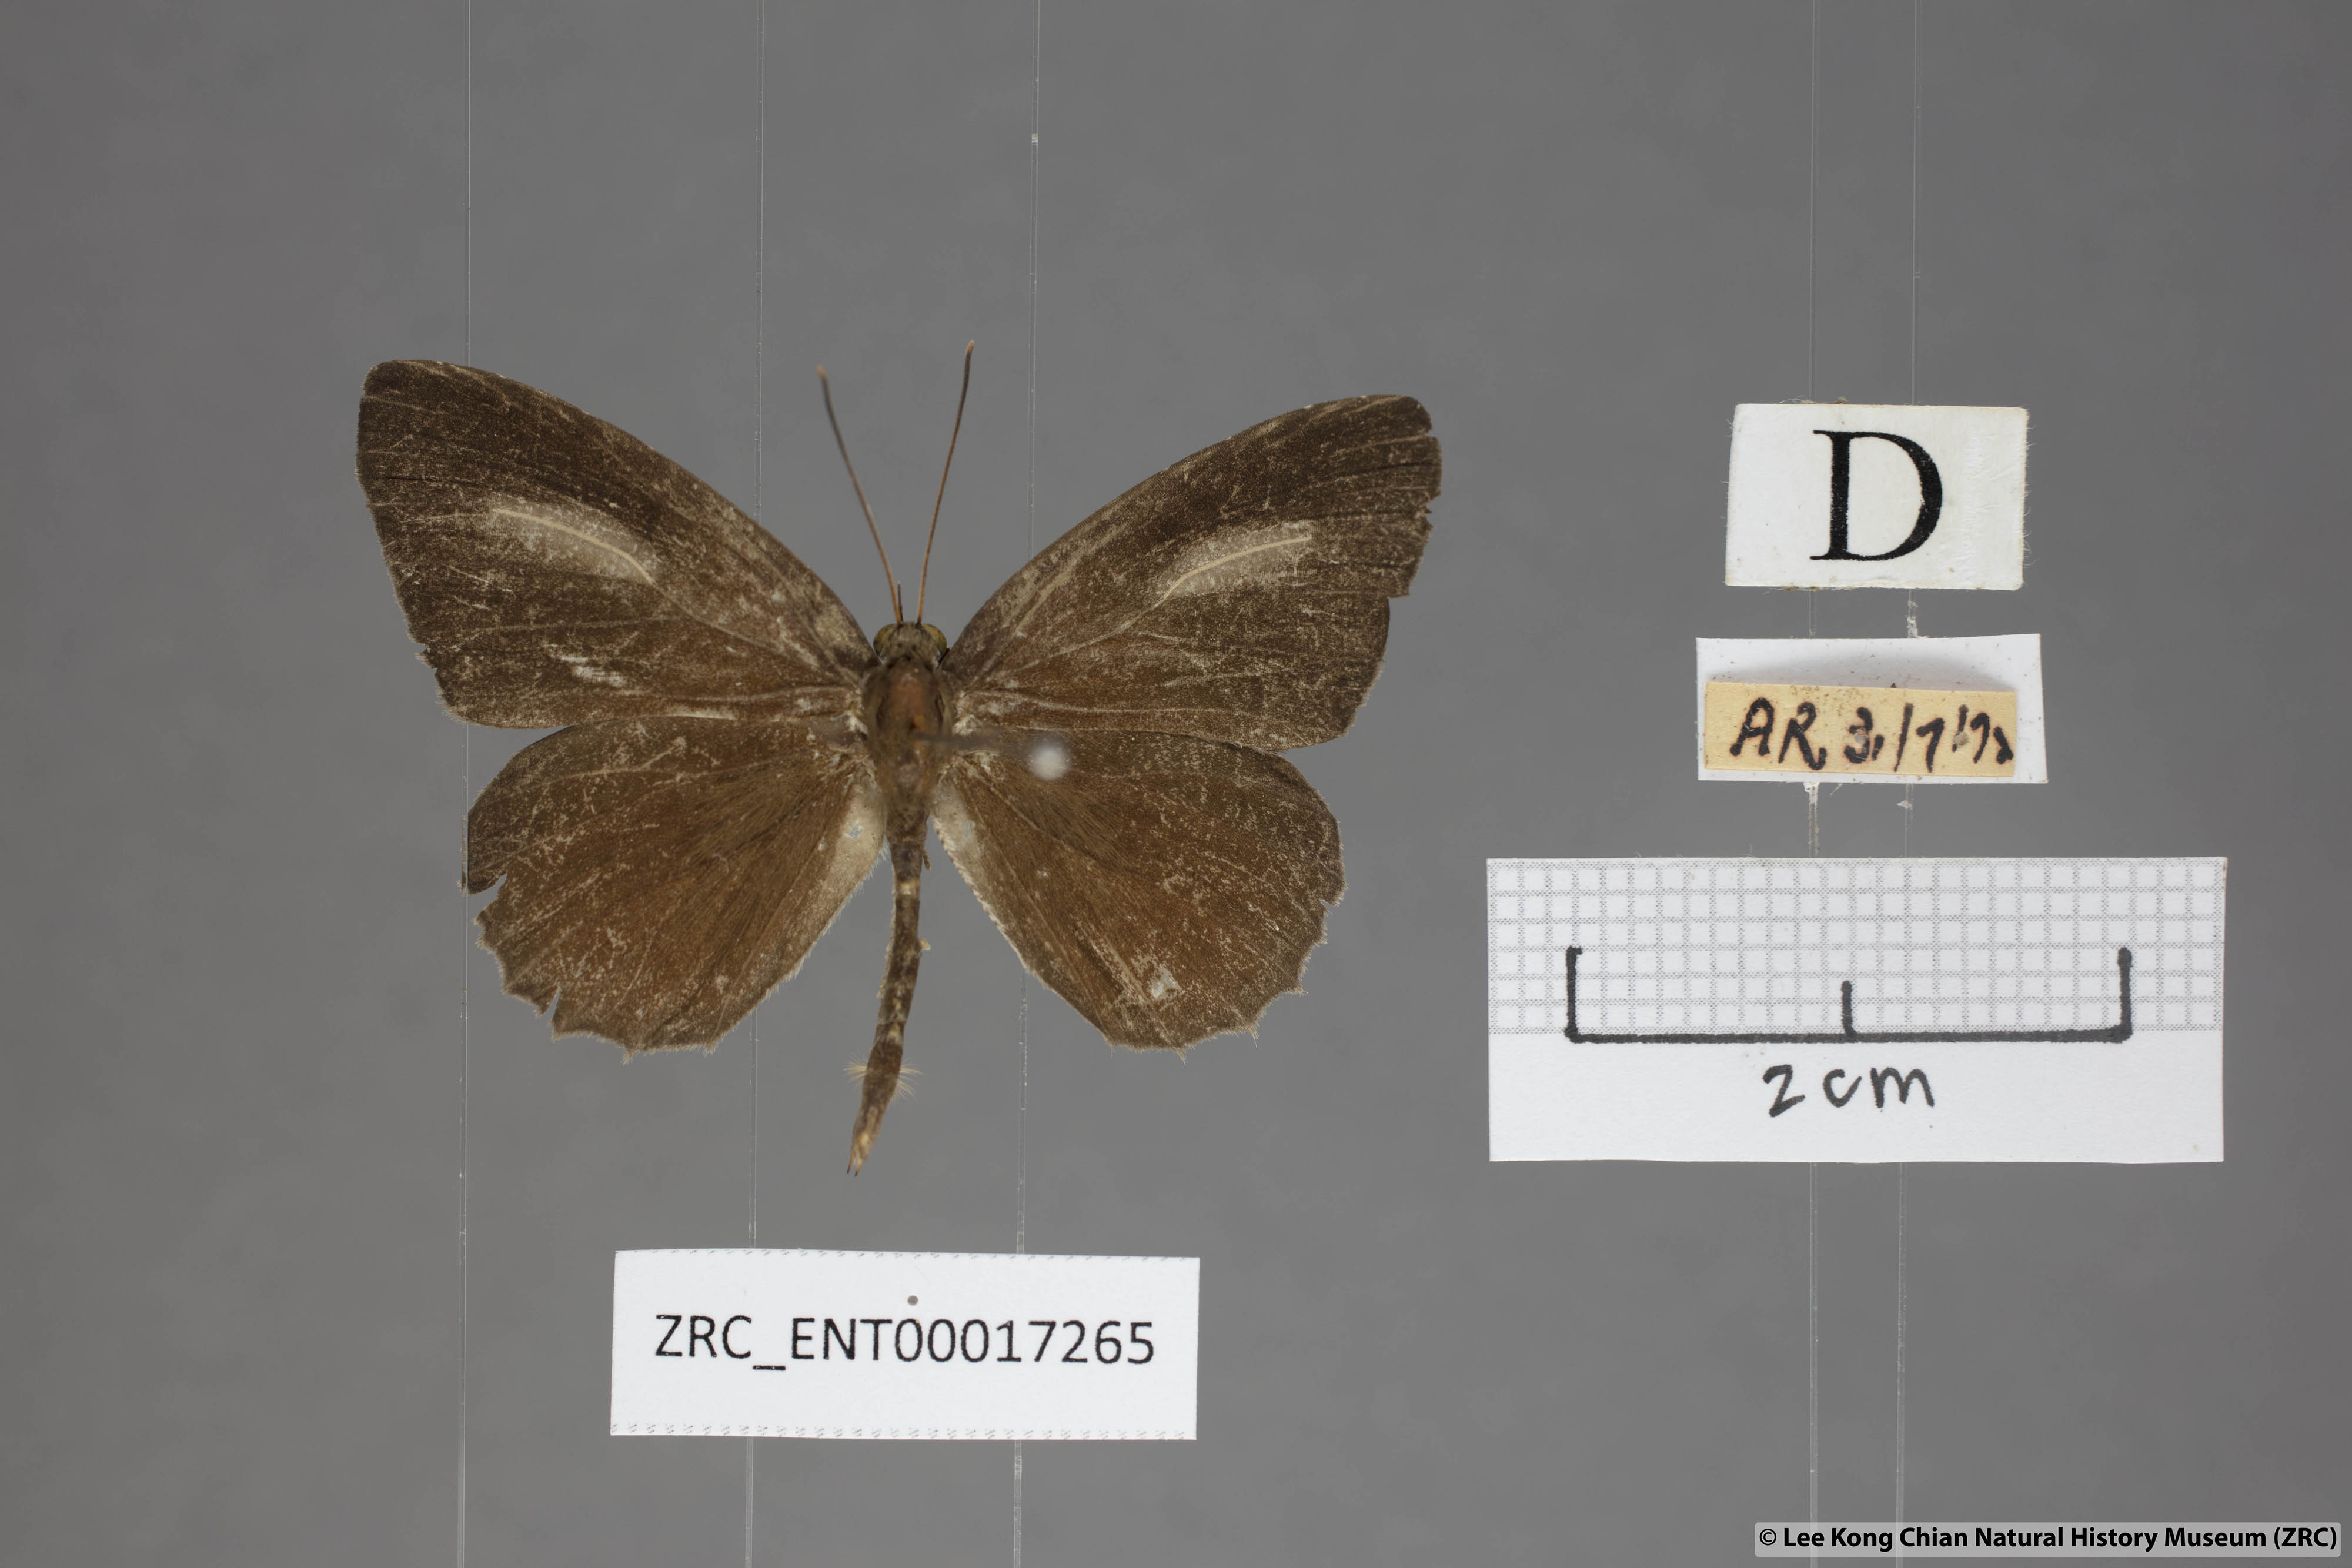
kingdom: Animalia
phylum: Arthropoda
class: Insecta
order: Lepidoptera
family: Lycaenidae
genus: Allotinus
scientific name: Allotinus leogoron
